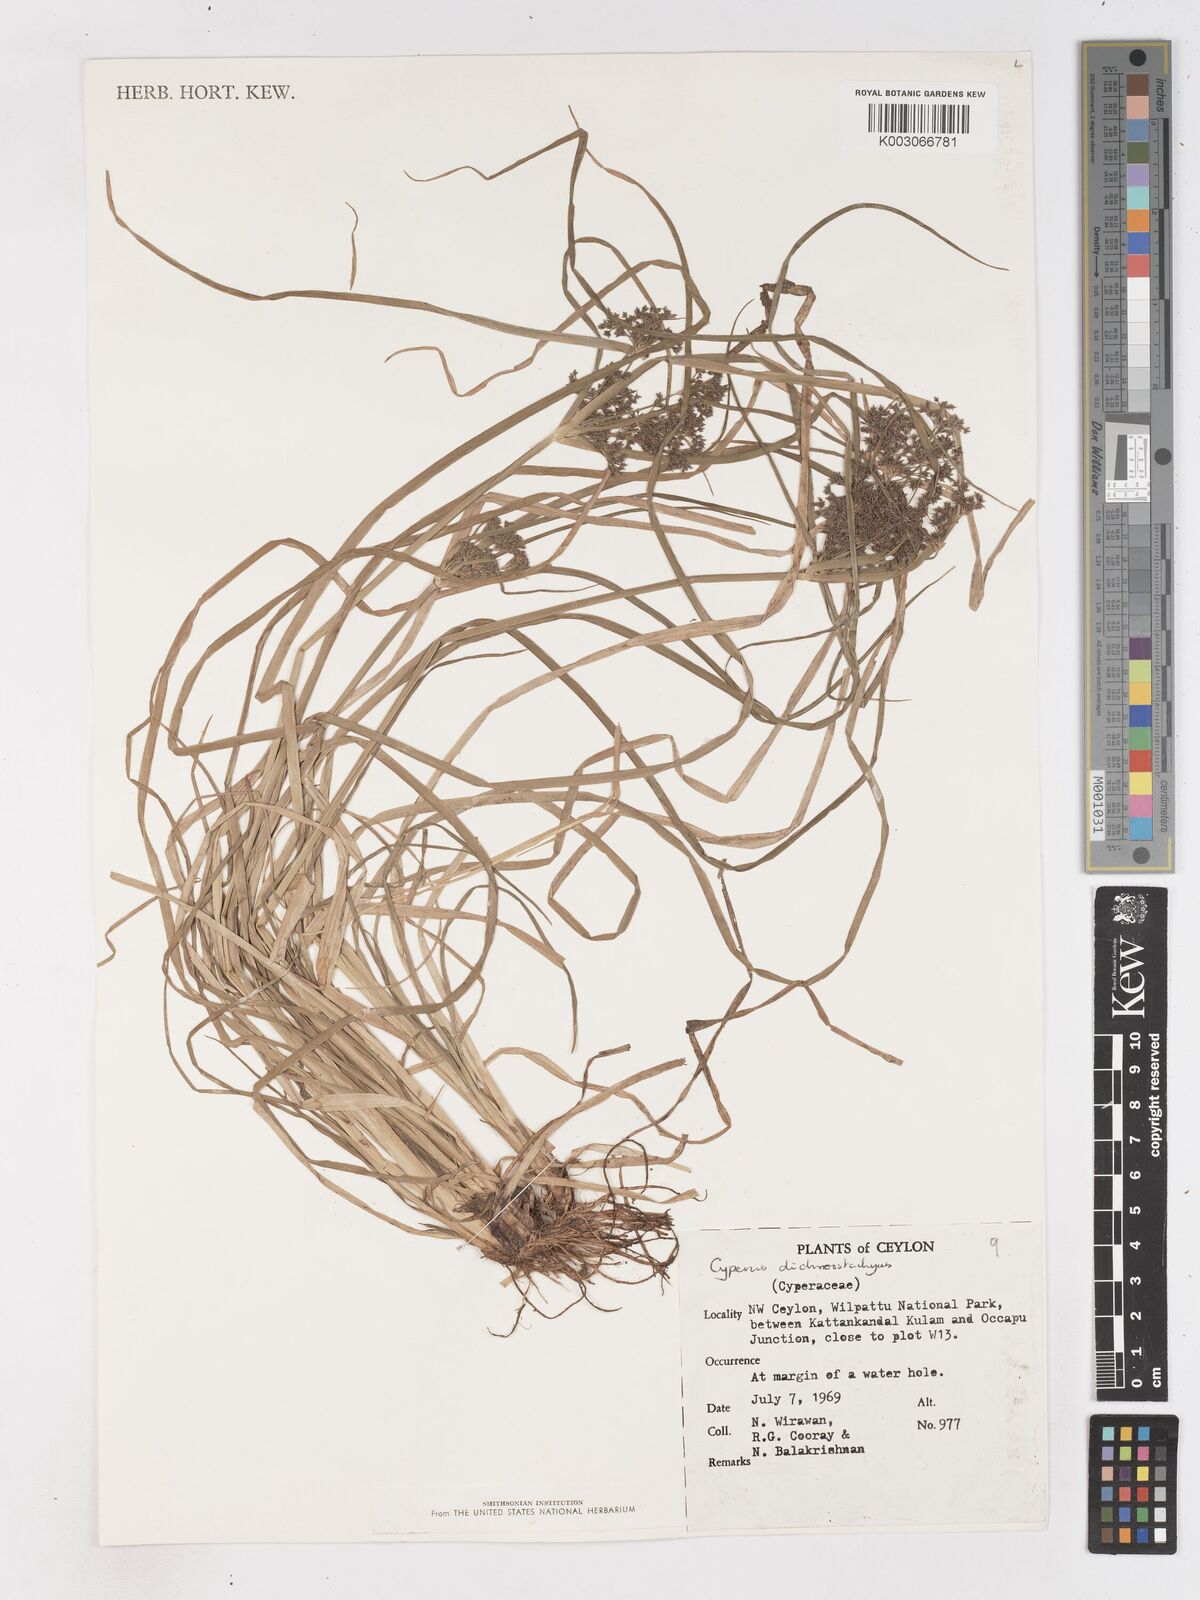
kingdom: Plantae
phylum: Tracheophyta
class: Liliopsida
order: Poales
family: Cyperaceae
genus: Cyperus
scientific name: Cyperus dichrostachyus
